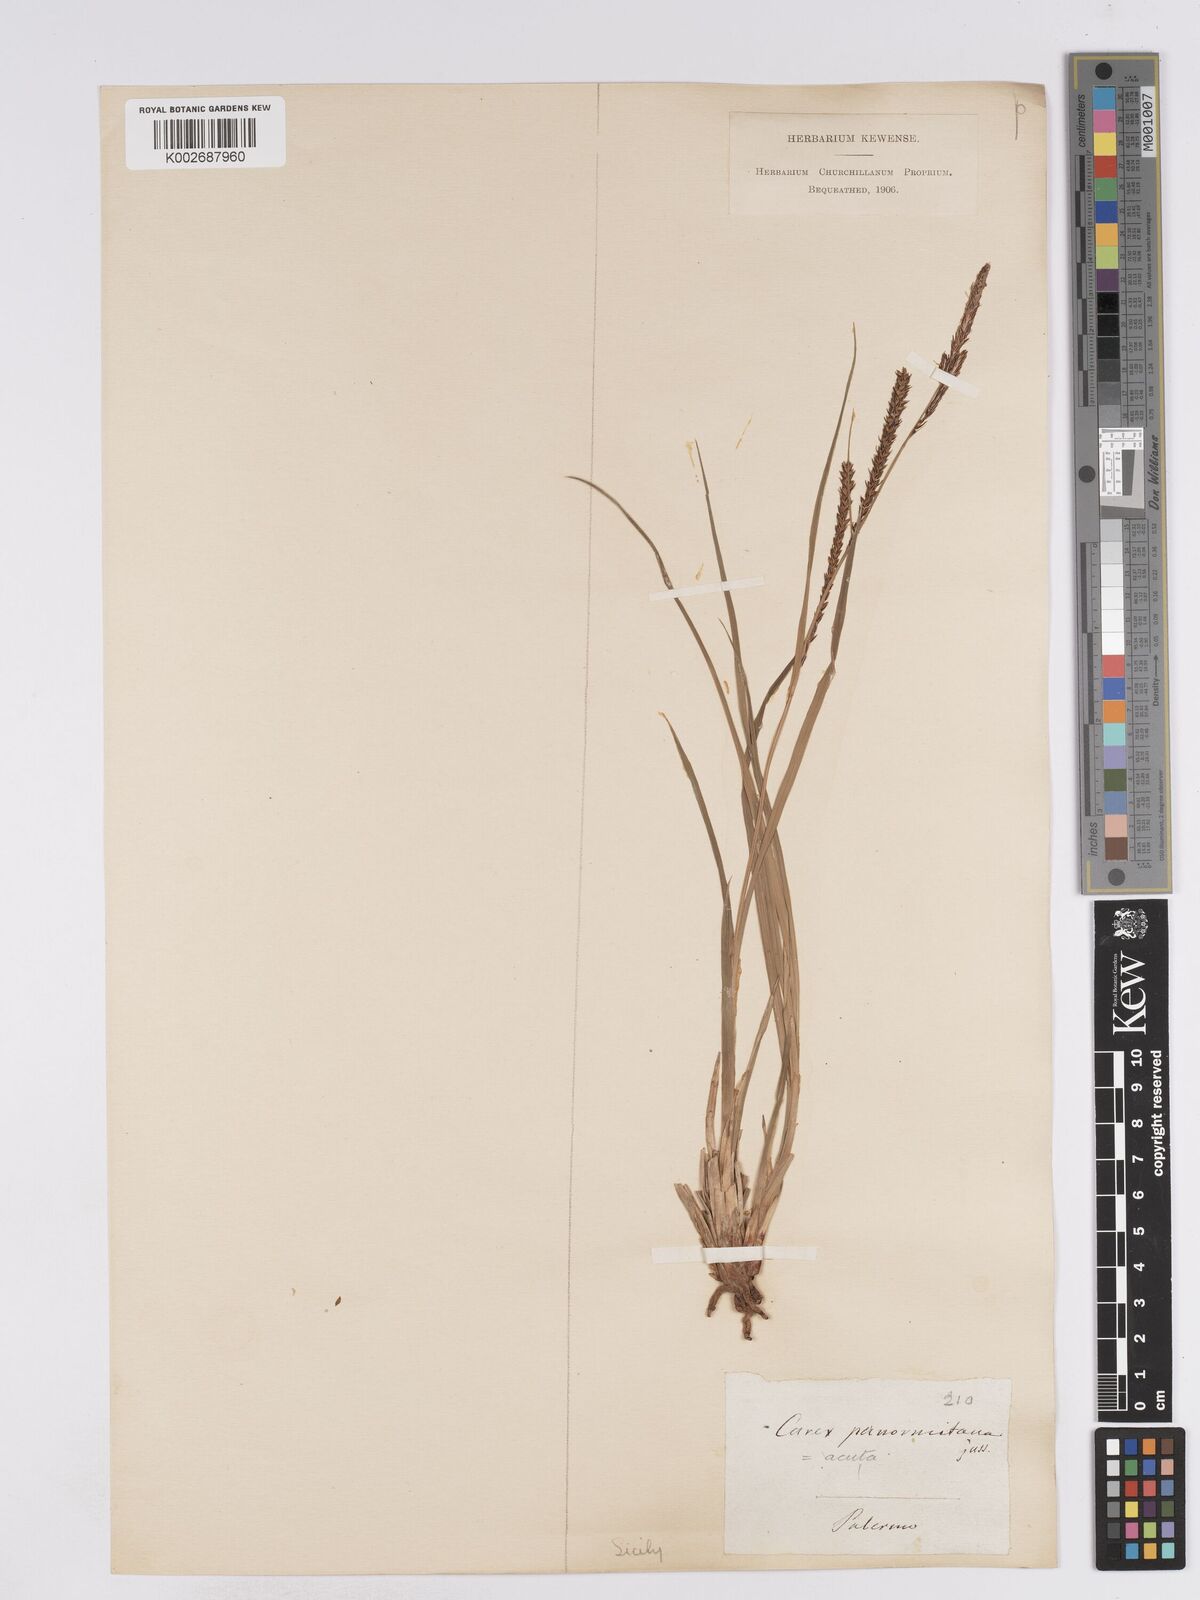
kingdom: Plantae
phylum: Tracheophyta
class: Liliopsida
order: Poales
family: Cyperaceae
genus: Carex
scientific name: Carex acuta
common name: Slender tufted-sedge
